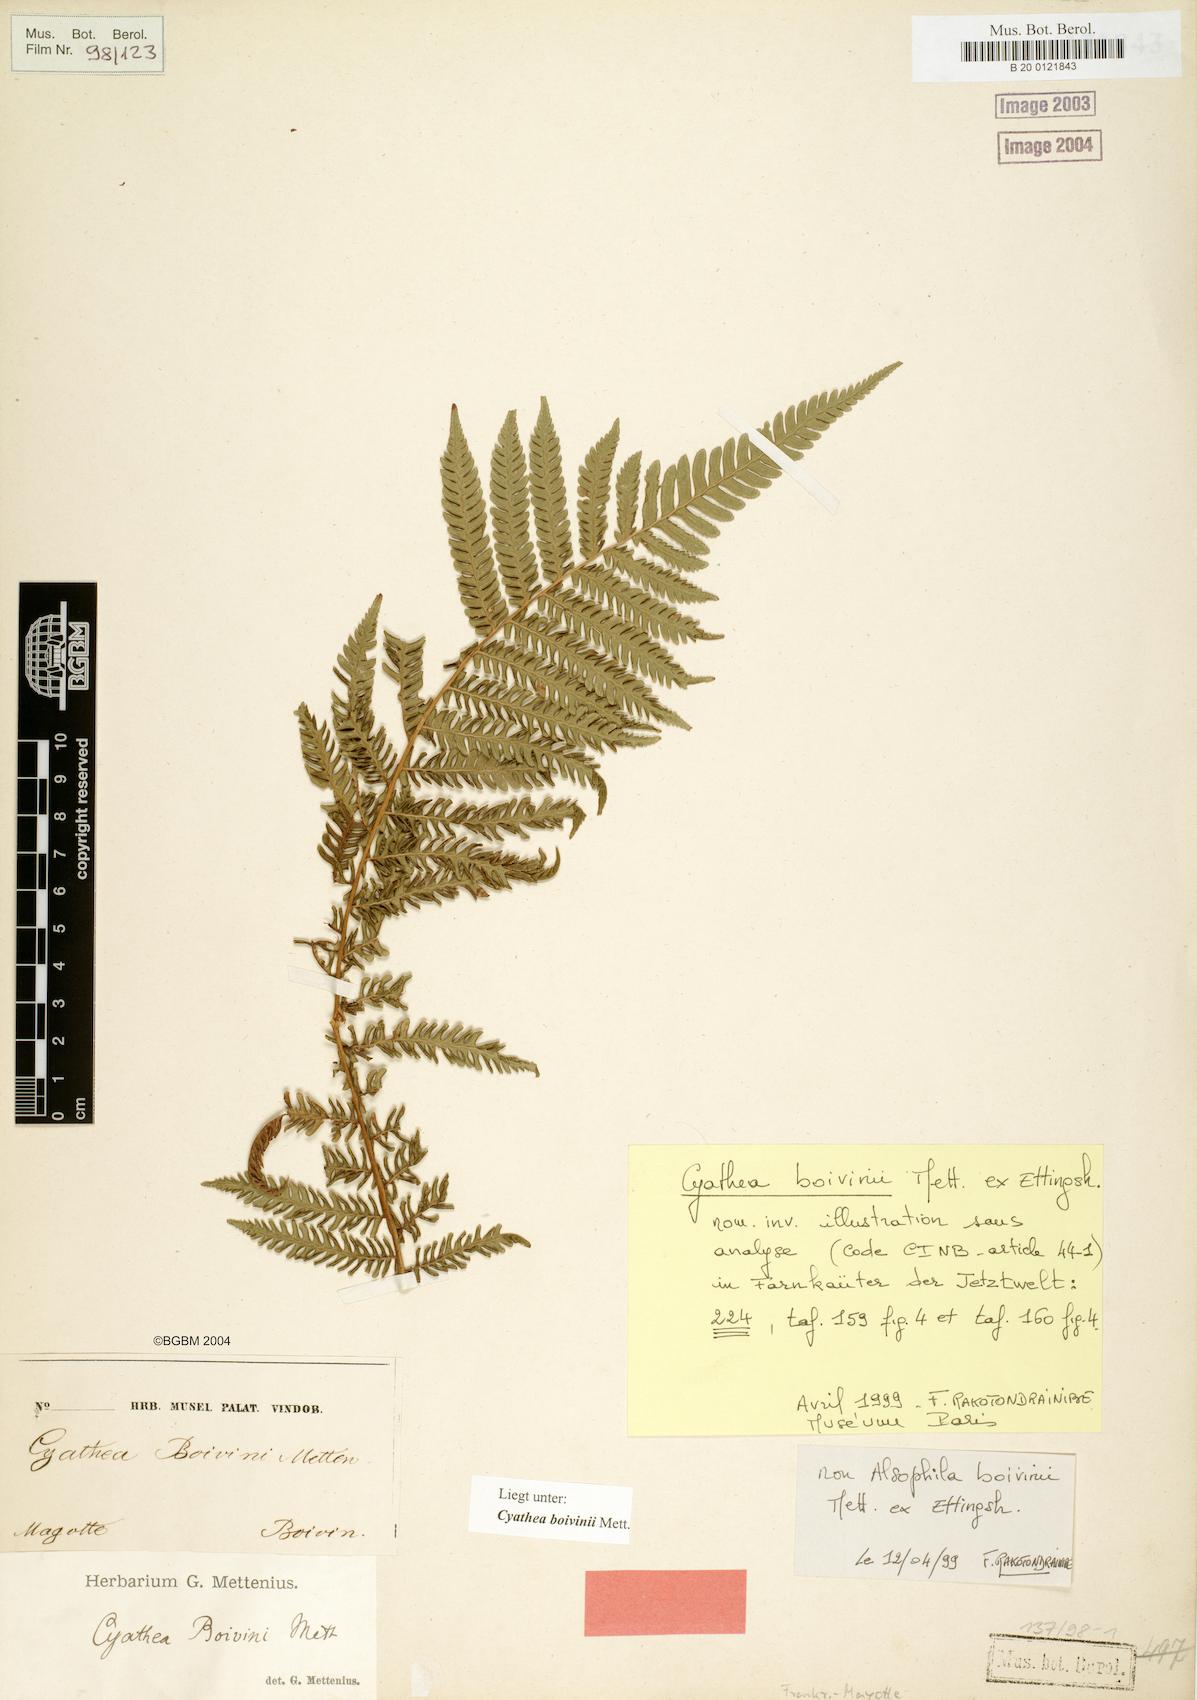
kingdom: Plantae
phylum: Tracheophyta
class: Polypodiopsida
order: Cyatheales
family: Cyatheaceae
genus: Cyathea
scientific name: Cyathea boivinii
